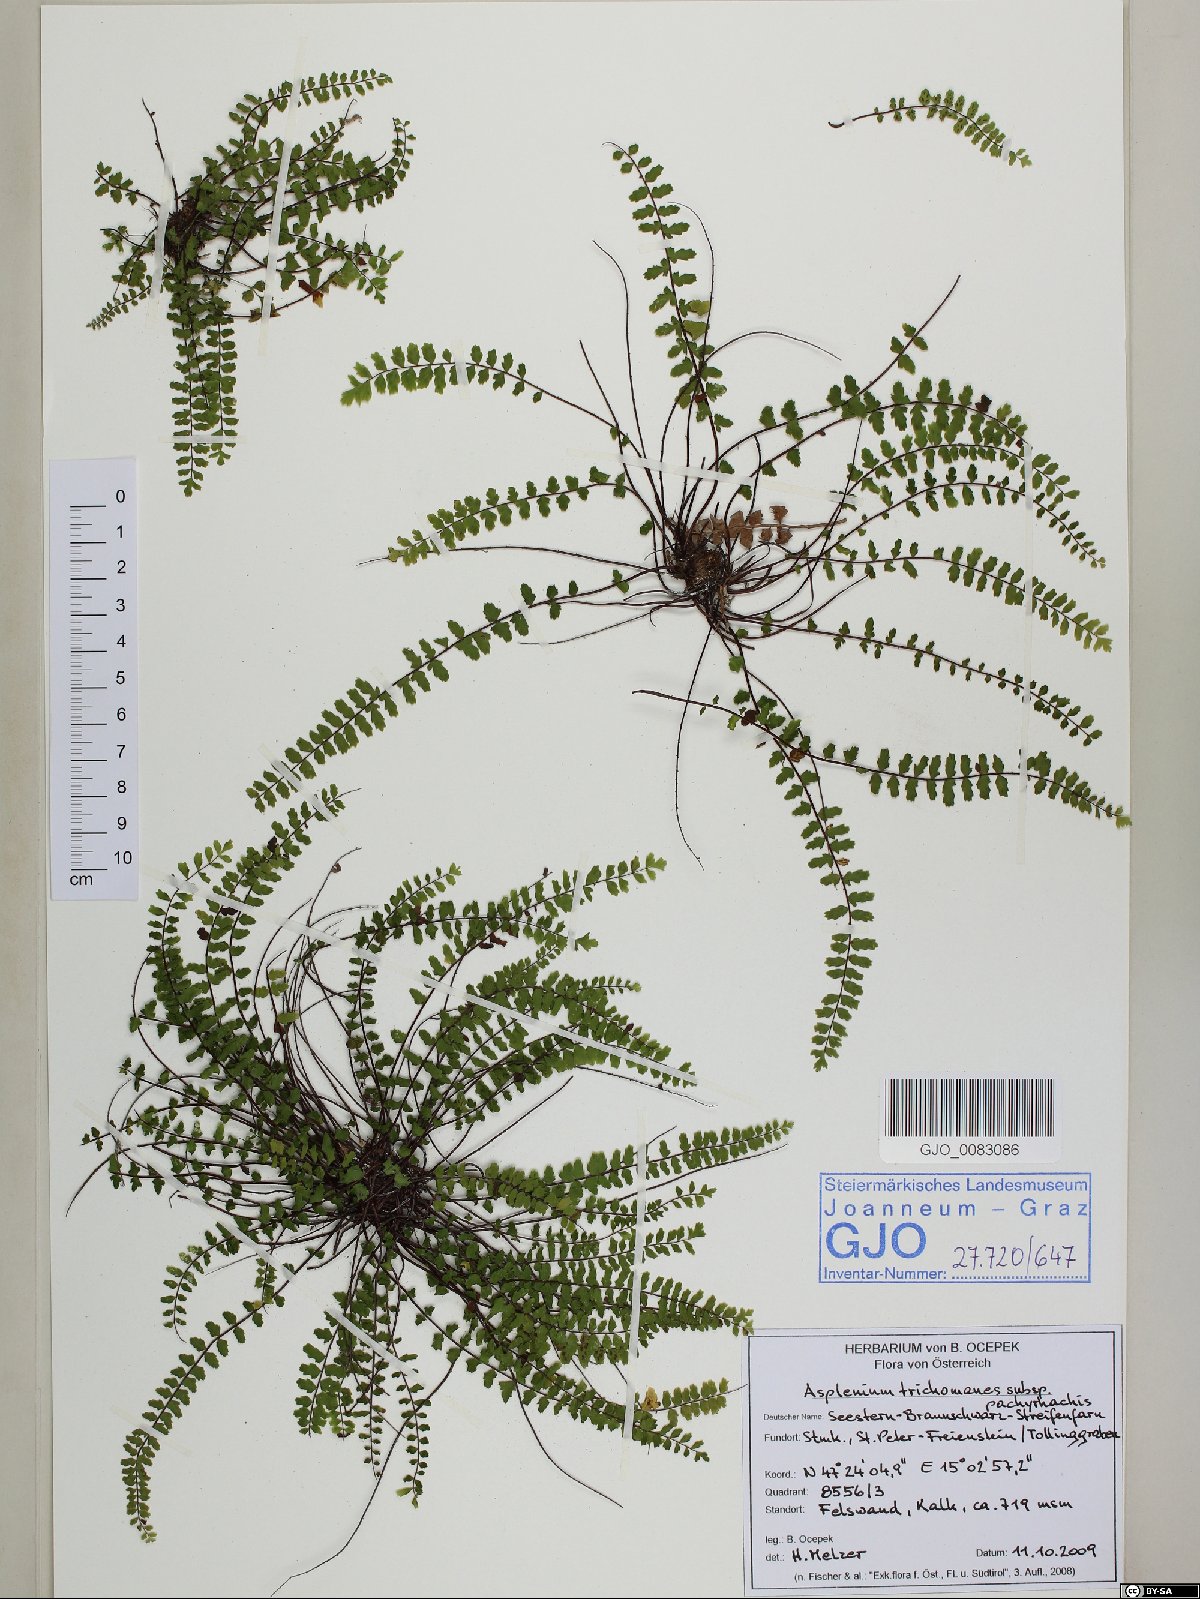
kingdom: Plantae
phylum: Tracheophyta
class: Polypodiopsida
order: Polypodiales
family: Aspleniaceae
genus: Asplenium
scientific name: Asplenium csikii
